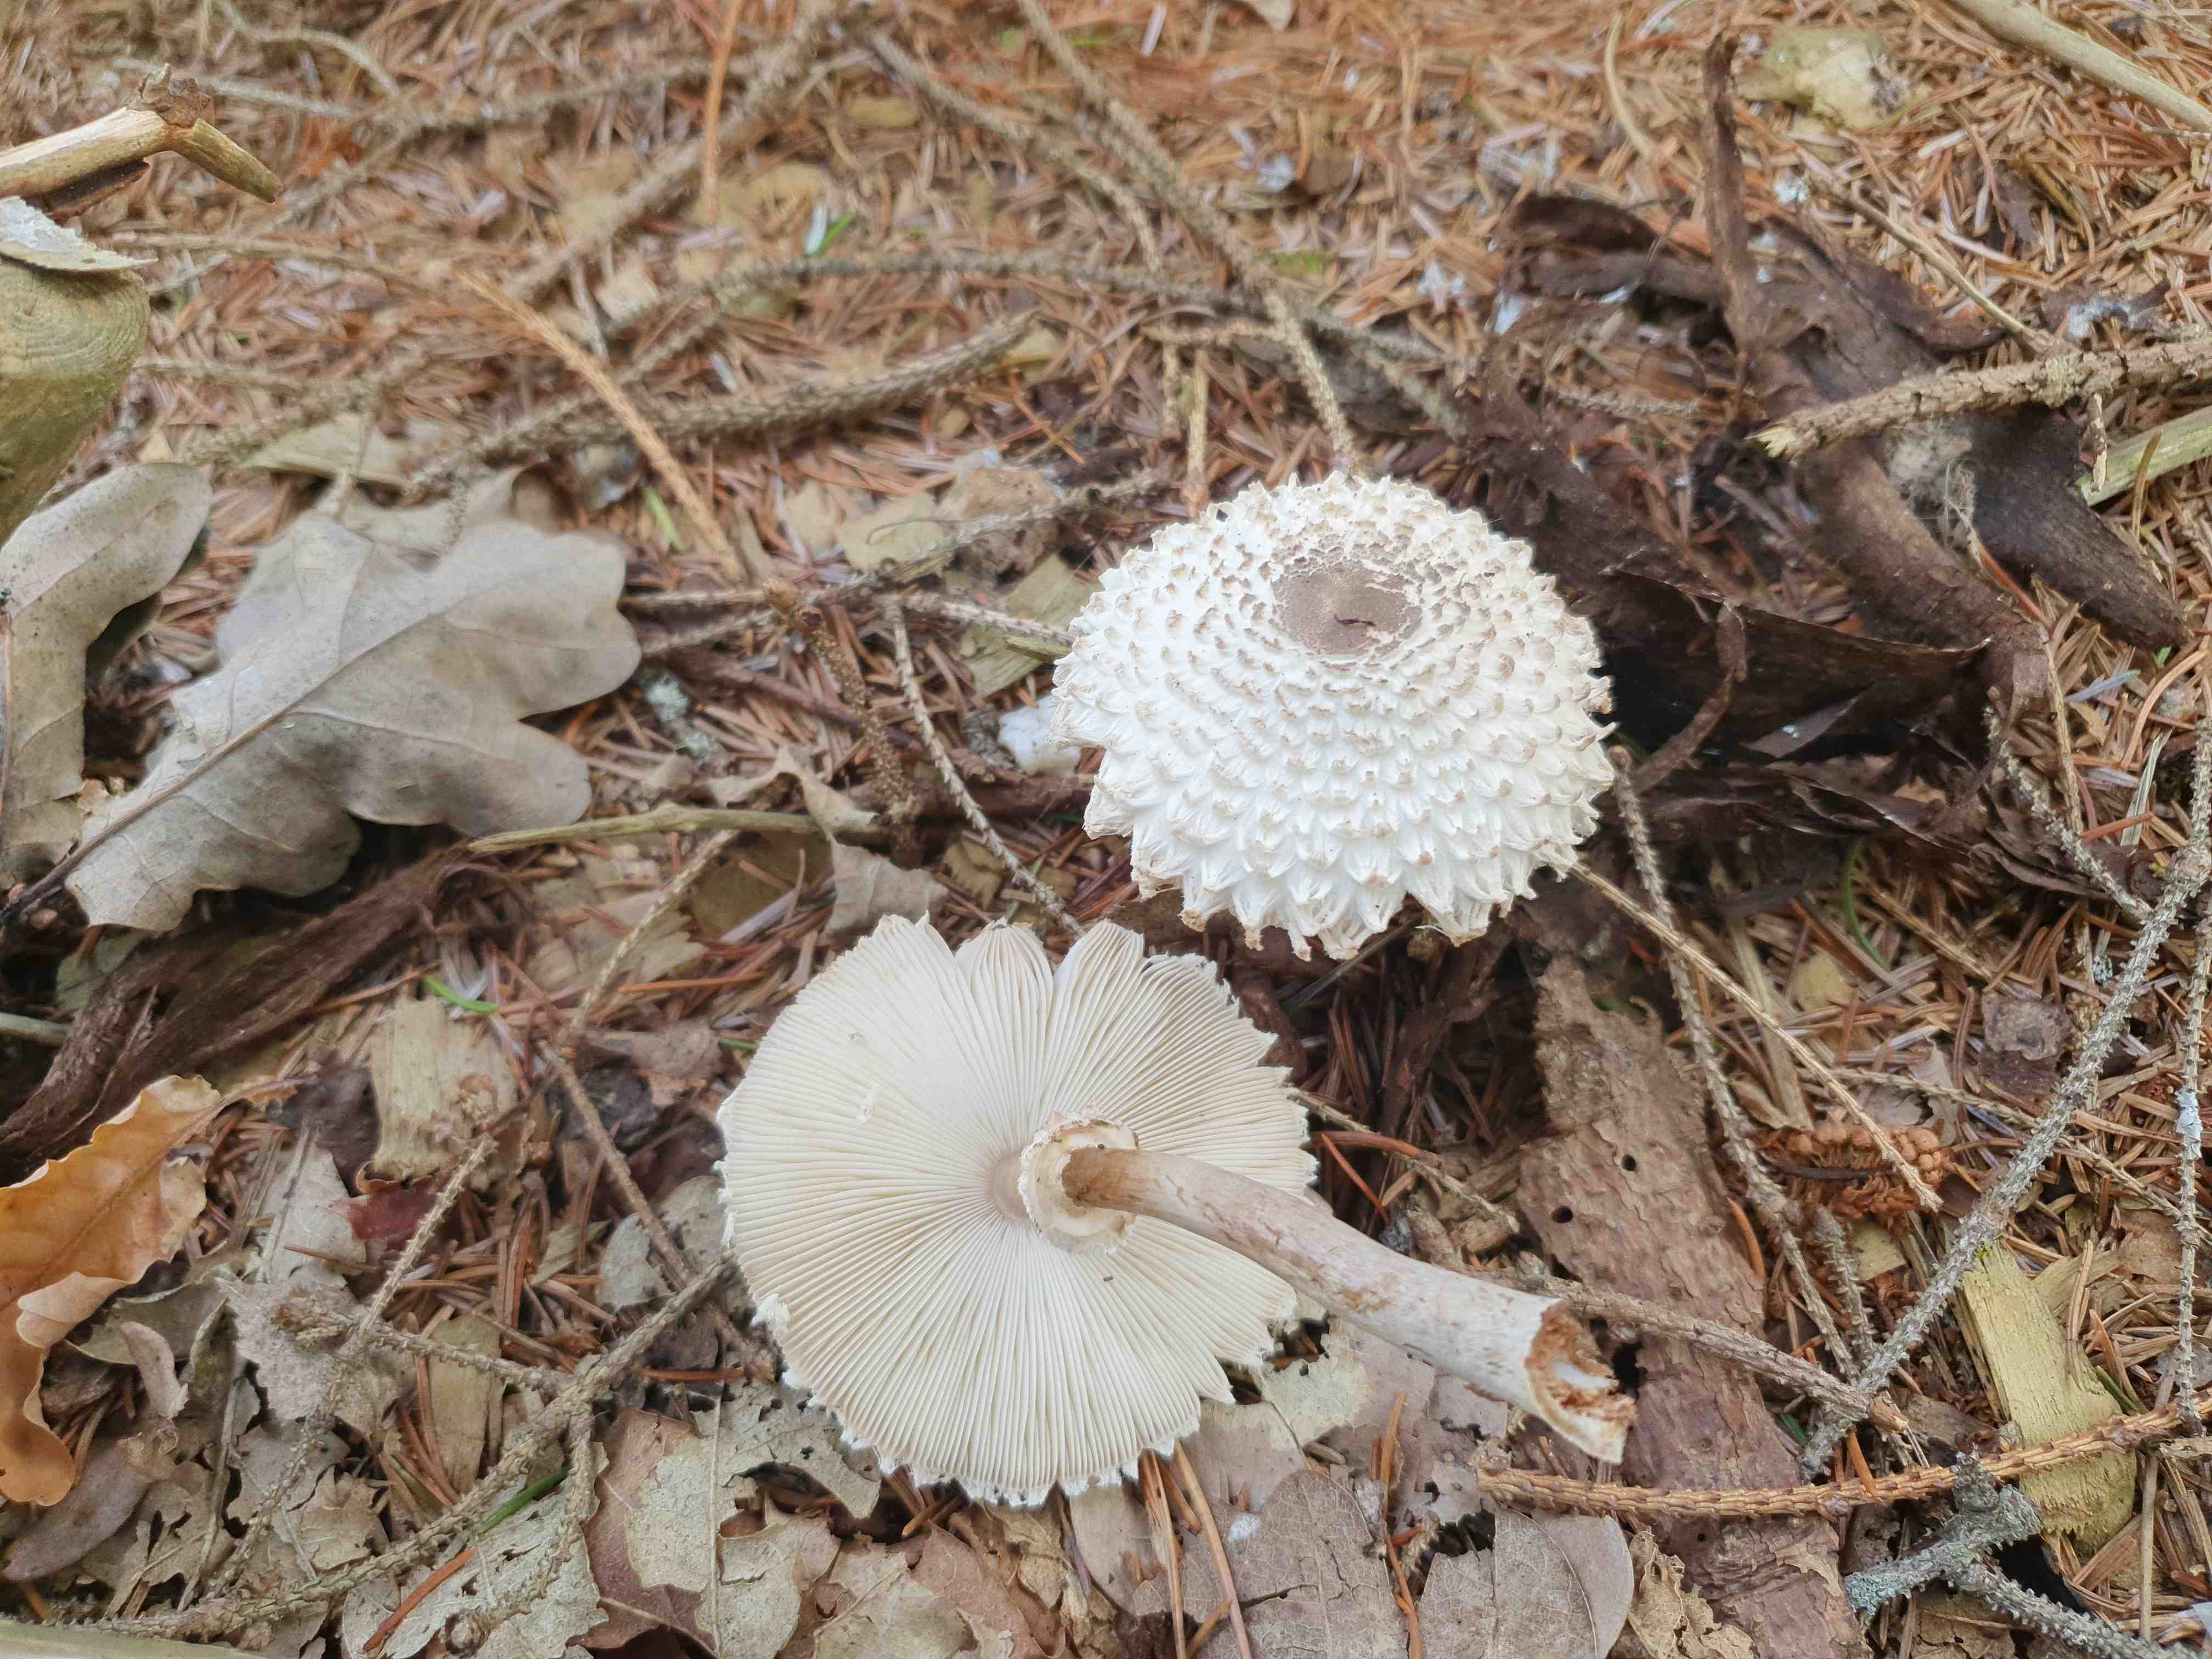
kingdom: Fungi
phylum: Basidiomycota
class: Agaricomycetes
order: Agaricales
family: Agaricaceae
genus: Leucoagaricus
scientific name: Leucoagaricus nympharum
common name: gran-silkehat
